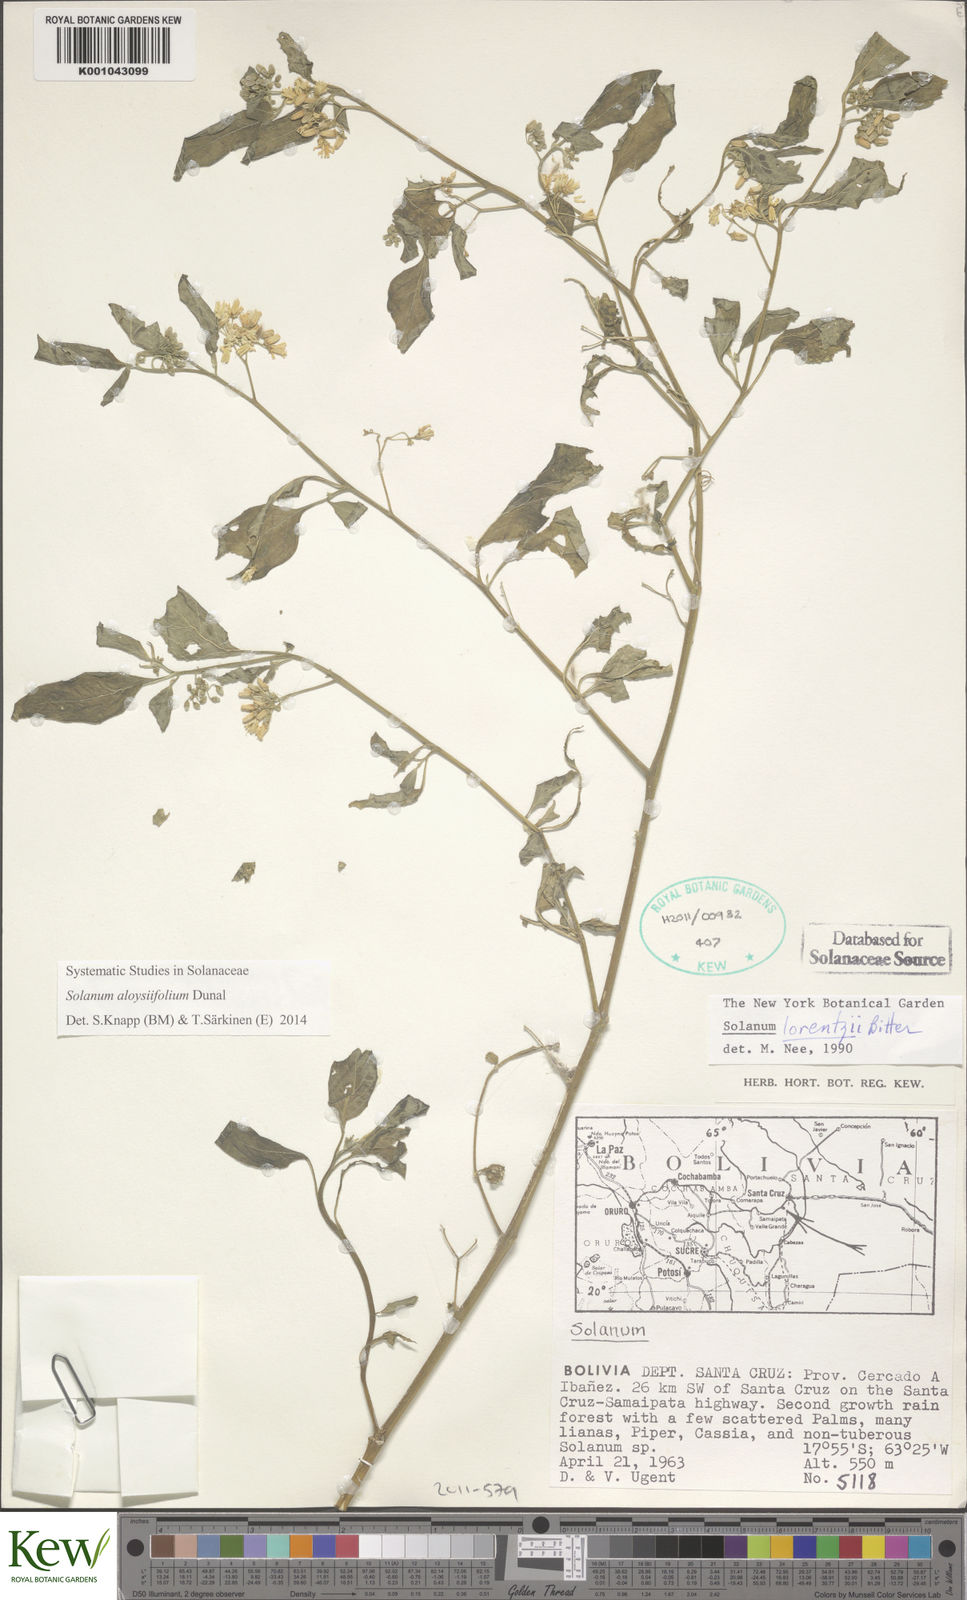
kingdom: Plantae
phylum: Tracheophyta
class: Magnoliopsida
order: Solanales
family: Solanaceae
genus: Solanum
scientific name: Solanum aloysiifolium
